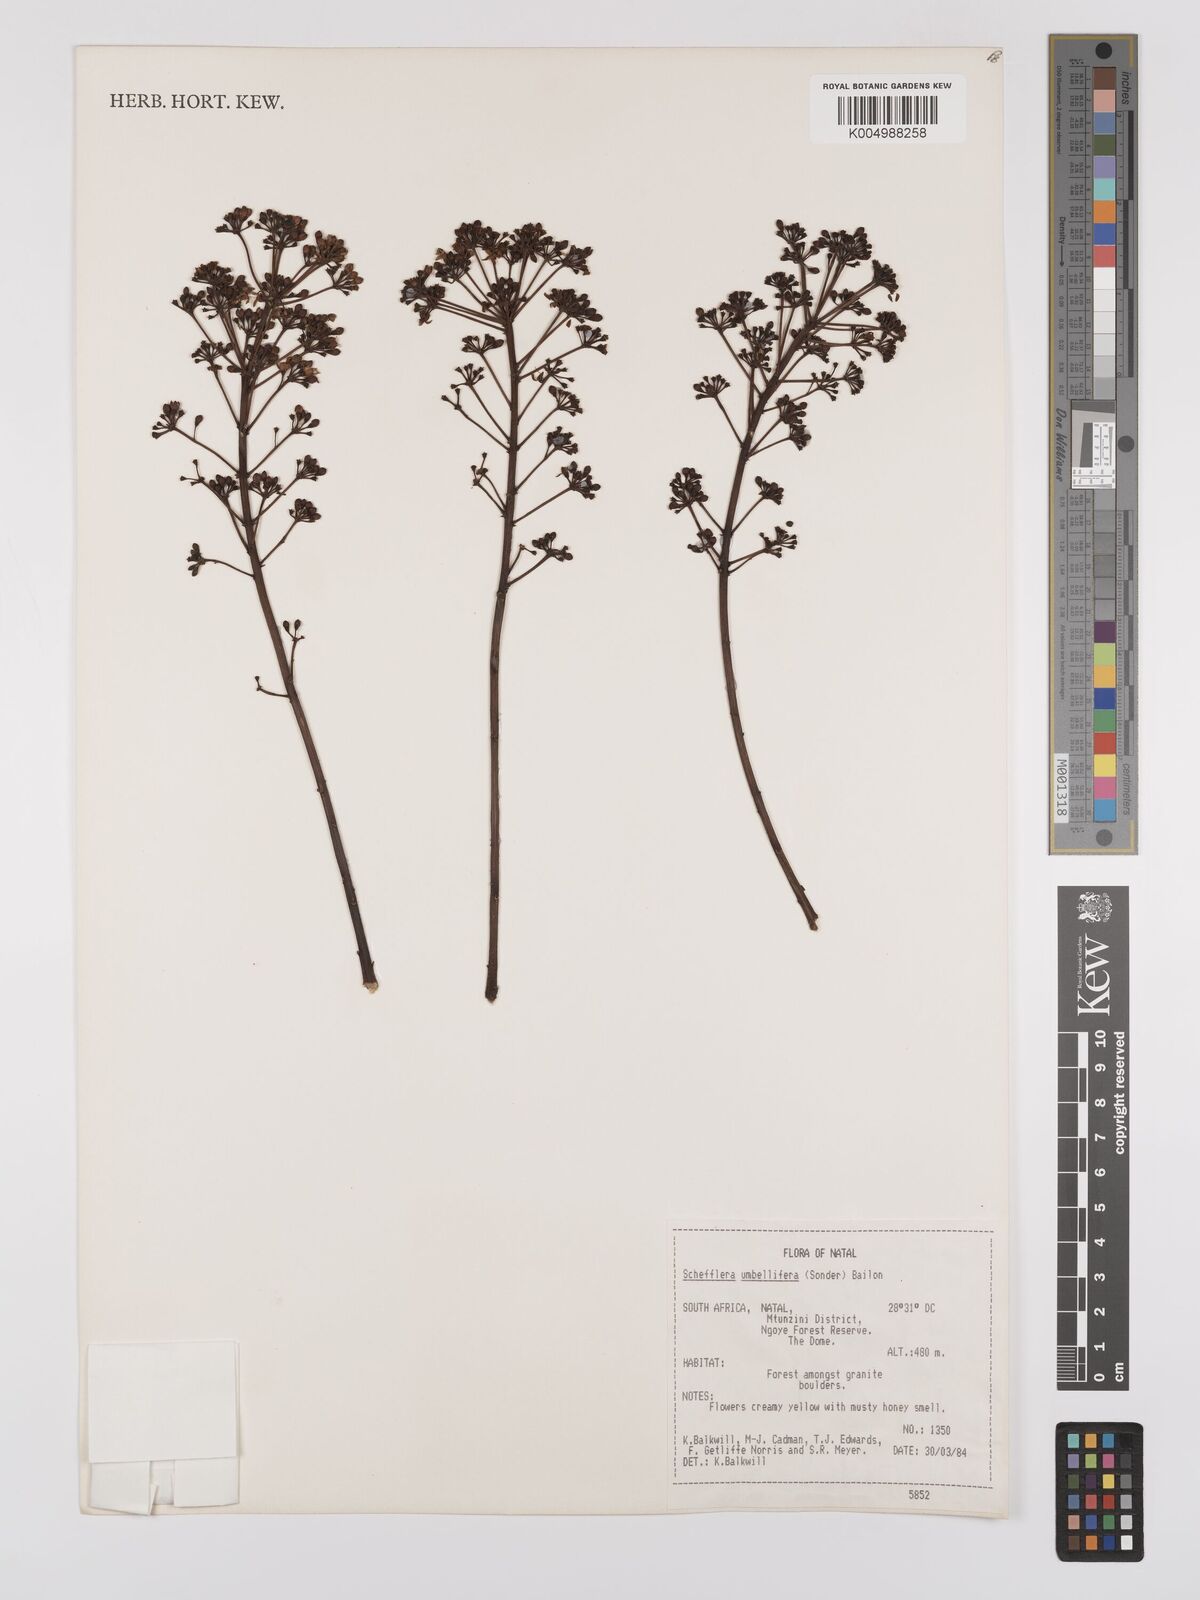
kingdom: Plantae
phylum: Tracheophyta
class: Magnoliopsida
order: Apiales
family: Araliaceae
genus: Neocussonia
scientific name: Neocussonia umbellifera
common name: False cabbage tree
